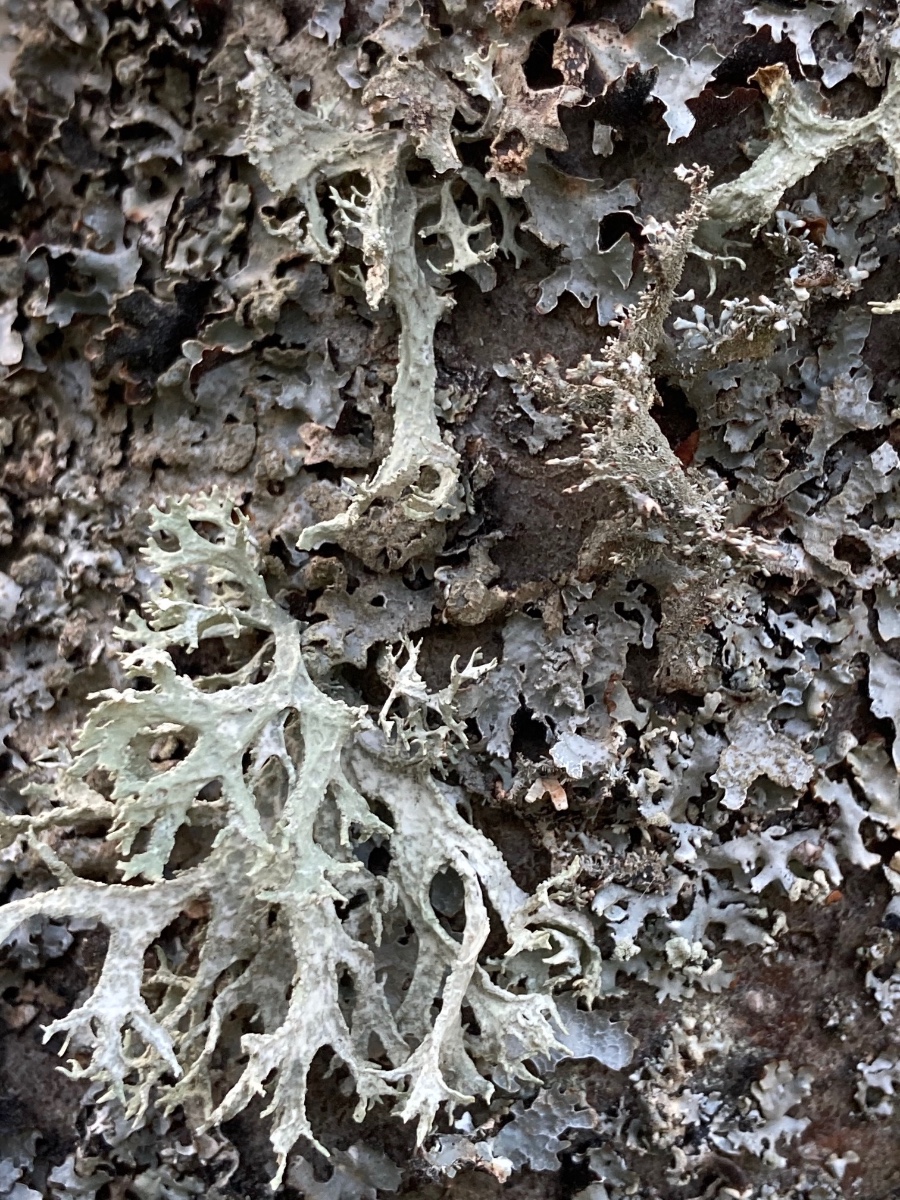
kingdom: Fungi
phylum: Ascomycota
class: Lecanoromycetes
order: Lecanorales
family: Parmeliaceae
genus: Evernia
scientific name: Evernia prunastri
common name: almindelig slåenlav
